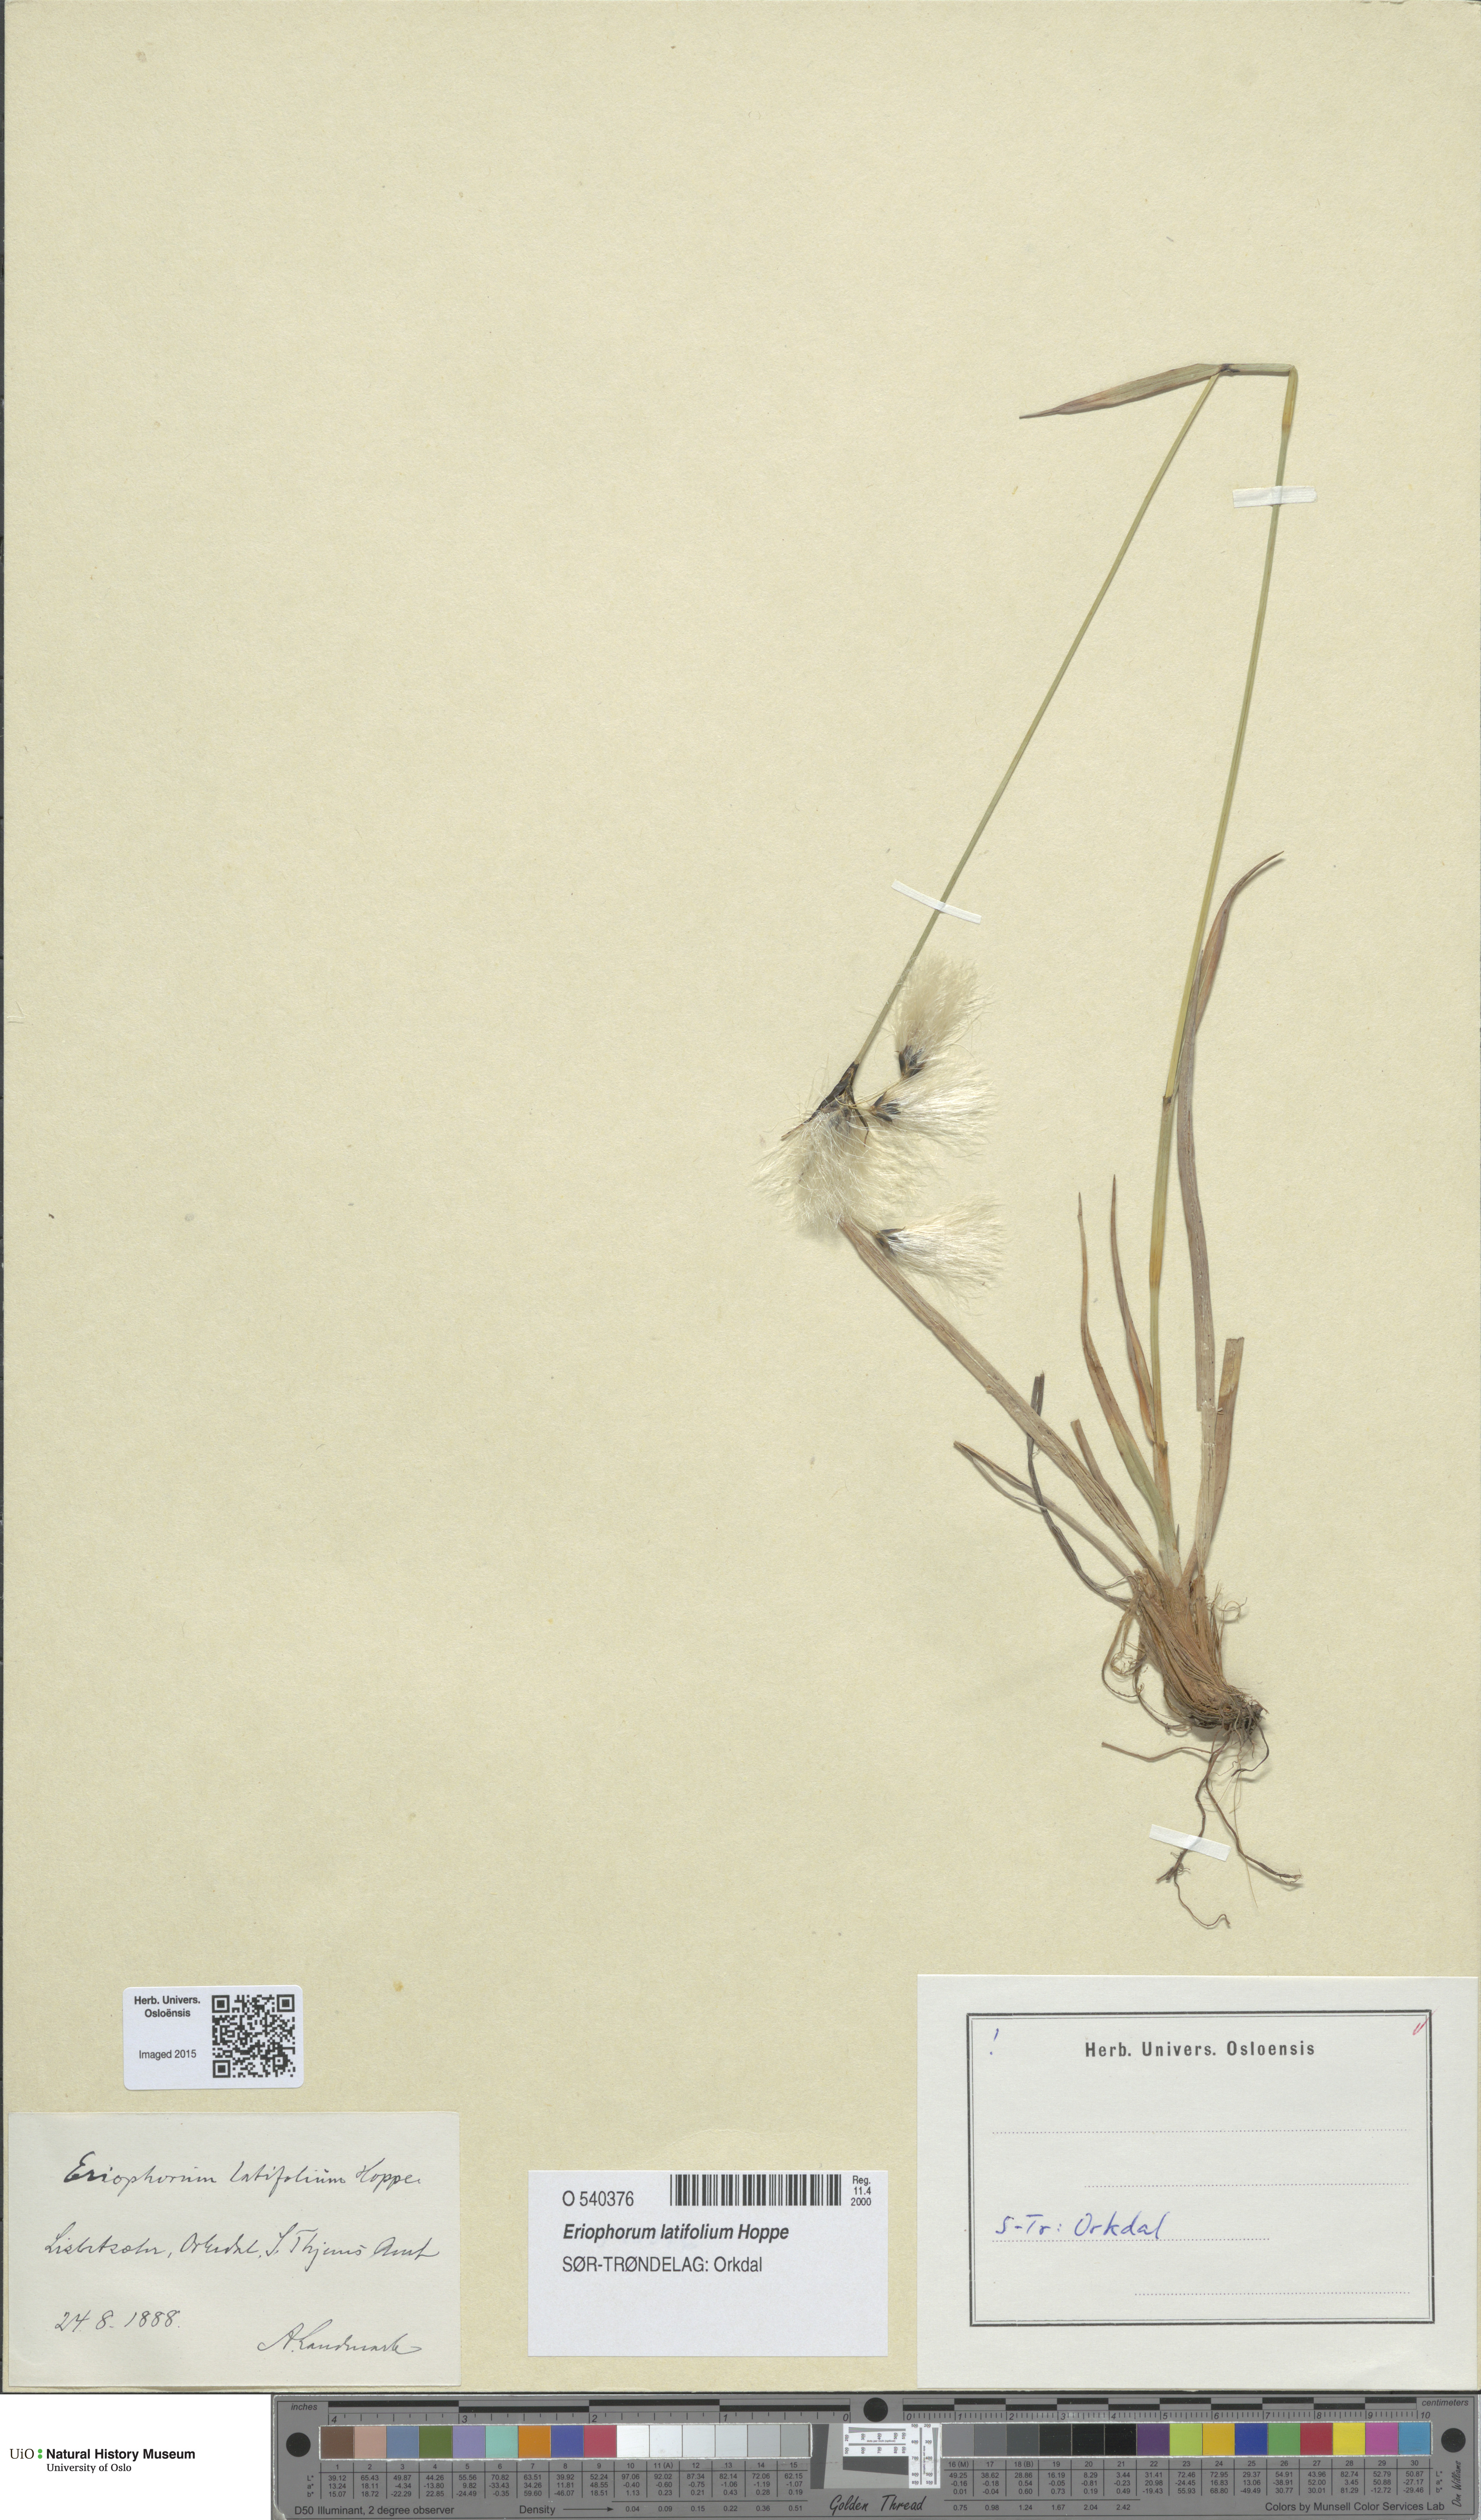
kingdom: Plantae
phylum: Tracheophyta
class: Liliopsida
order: Poales
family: Cyperaceae
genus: Eriophorum
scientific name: Eriophorum latifolium
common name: Broad-leaved cottongrass
